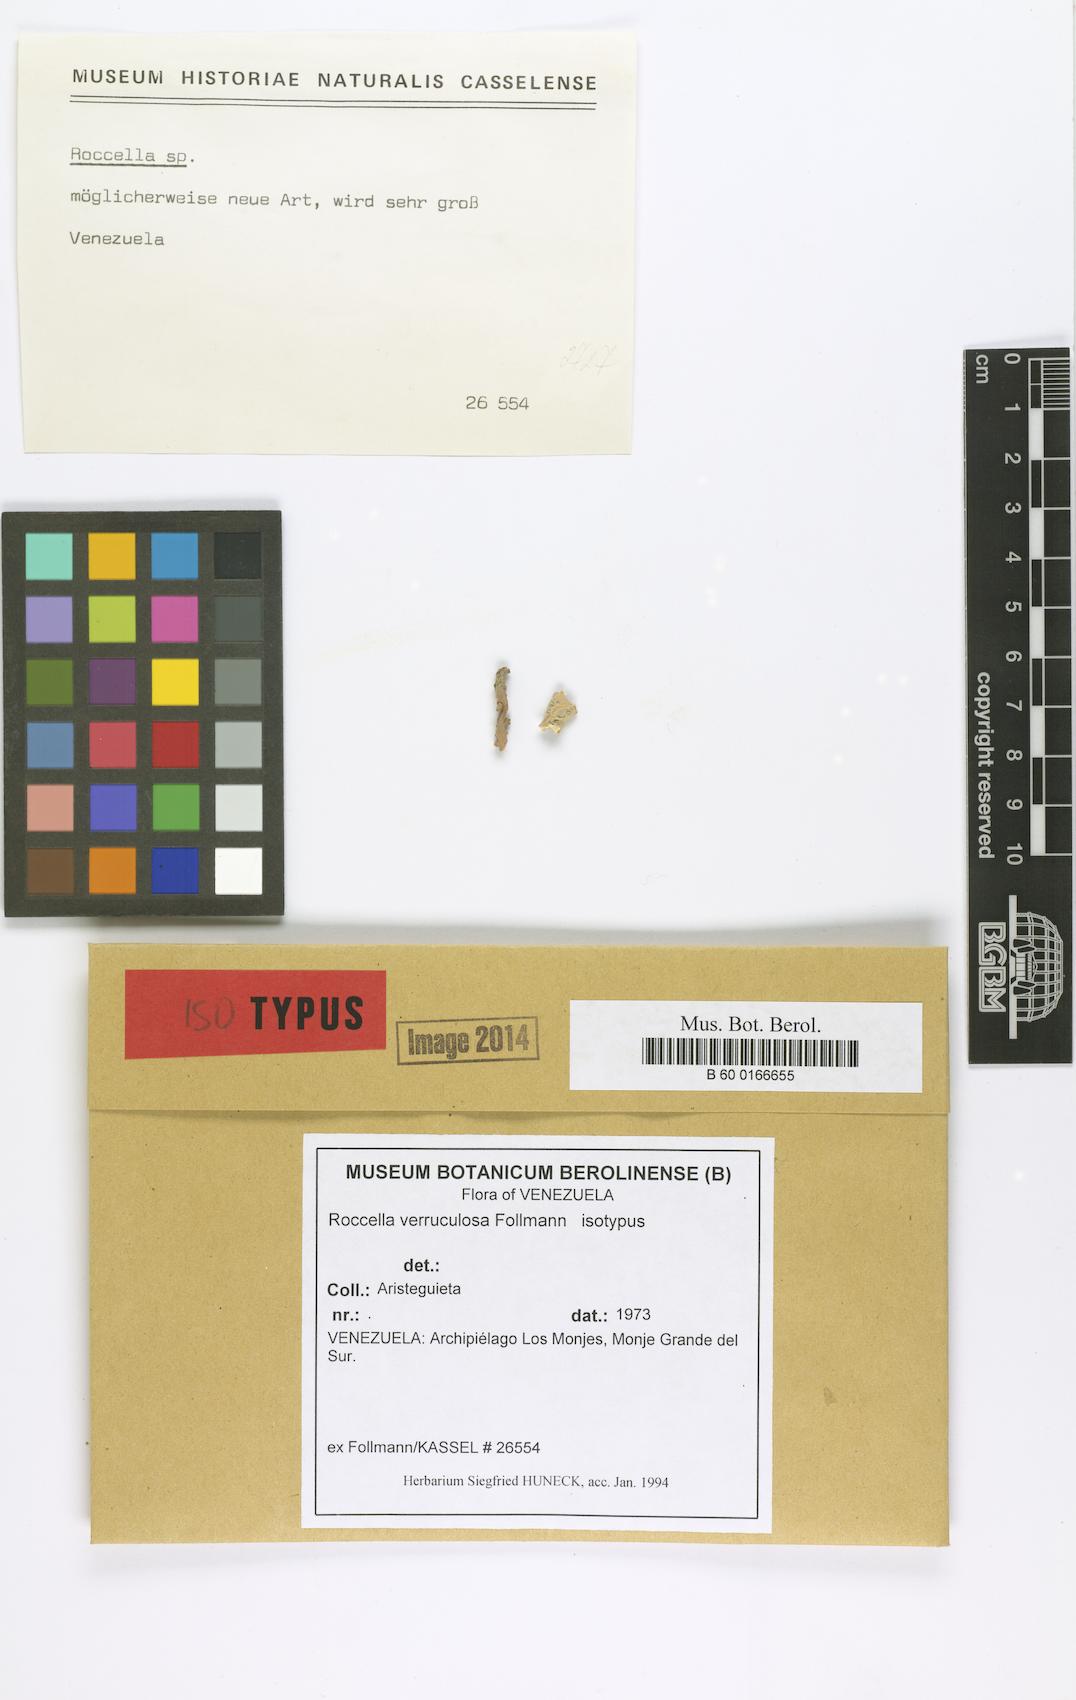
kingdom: Fungi
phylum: Ascomycota
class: Arthoniomycetes
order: Arthoniales
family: Roccellaceae
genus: Roccella
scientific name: Roccella verruculosa
